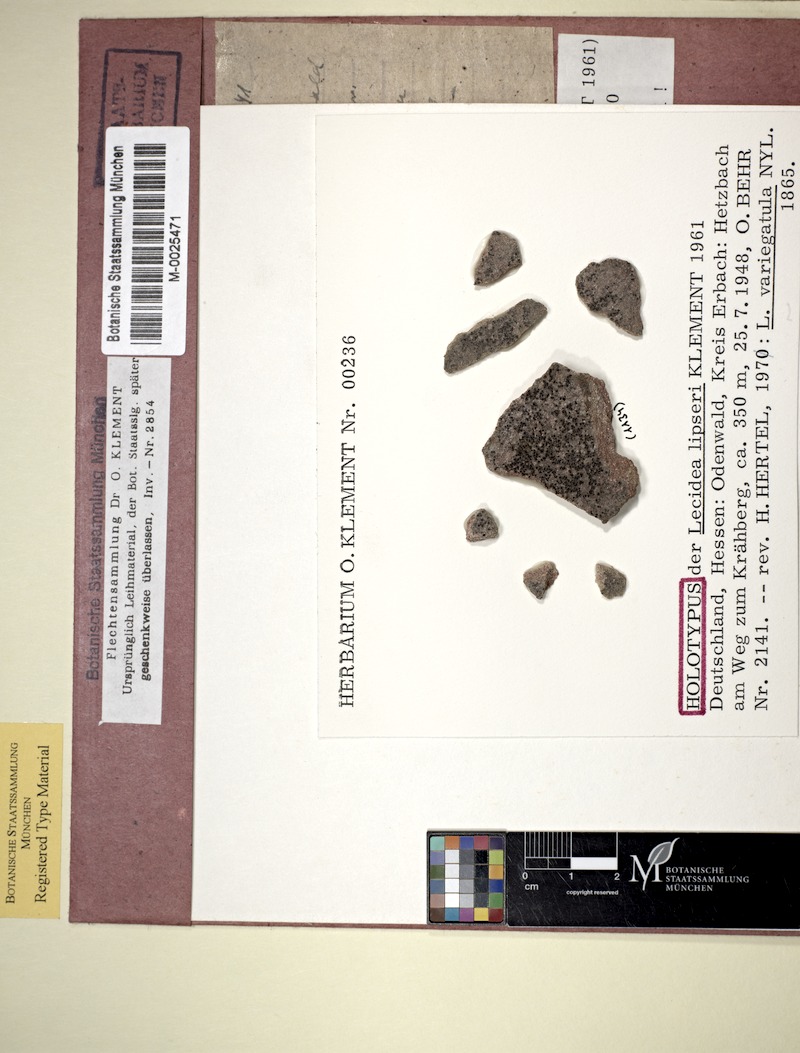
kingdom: Fungi
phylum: Ascomycota
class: Lecanoromycetes
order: Lecideales
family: Lecideaceae
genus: Lecidea
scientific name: Lecidea variegatula
